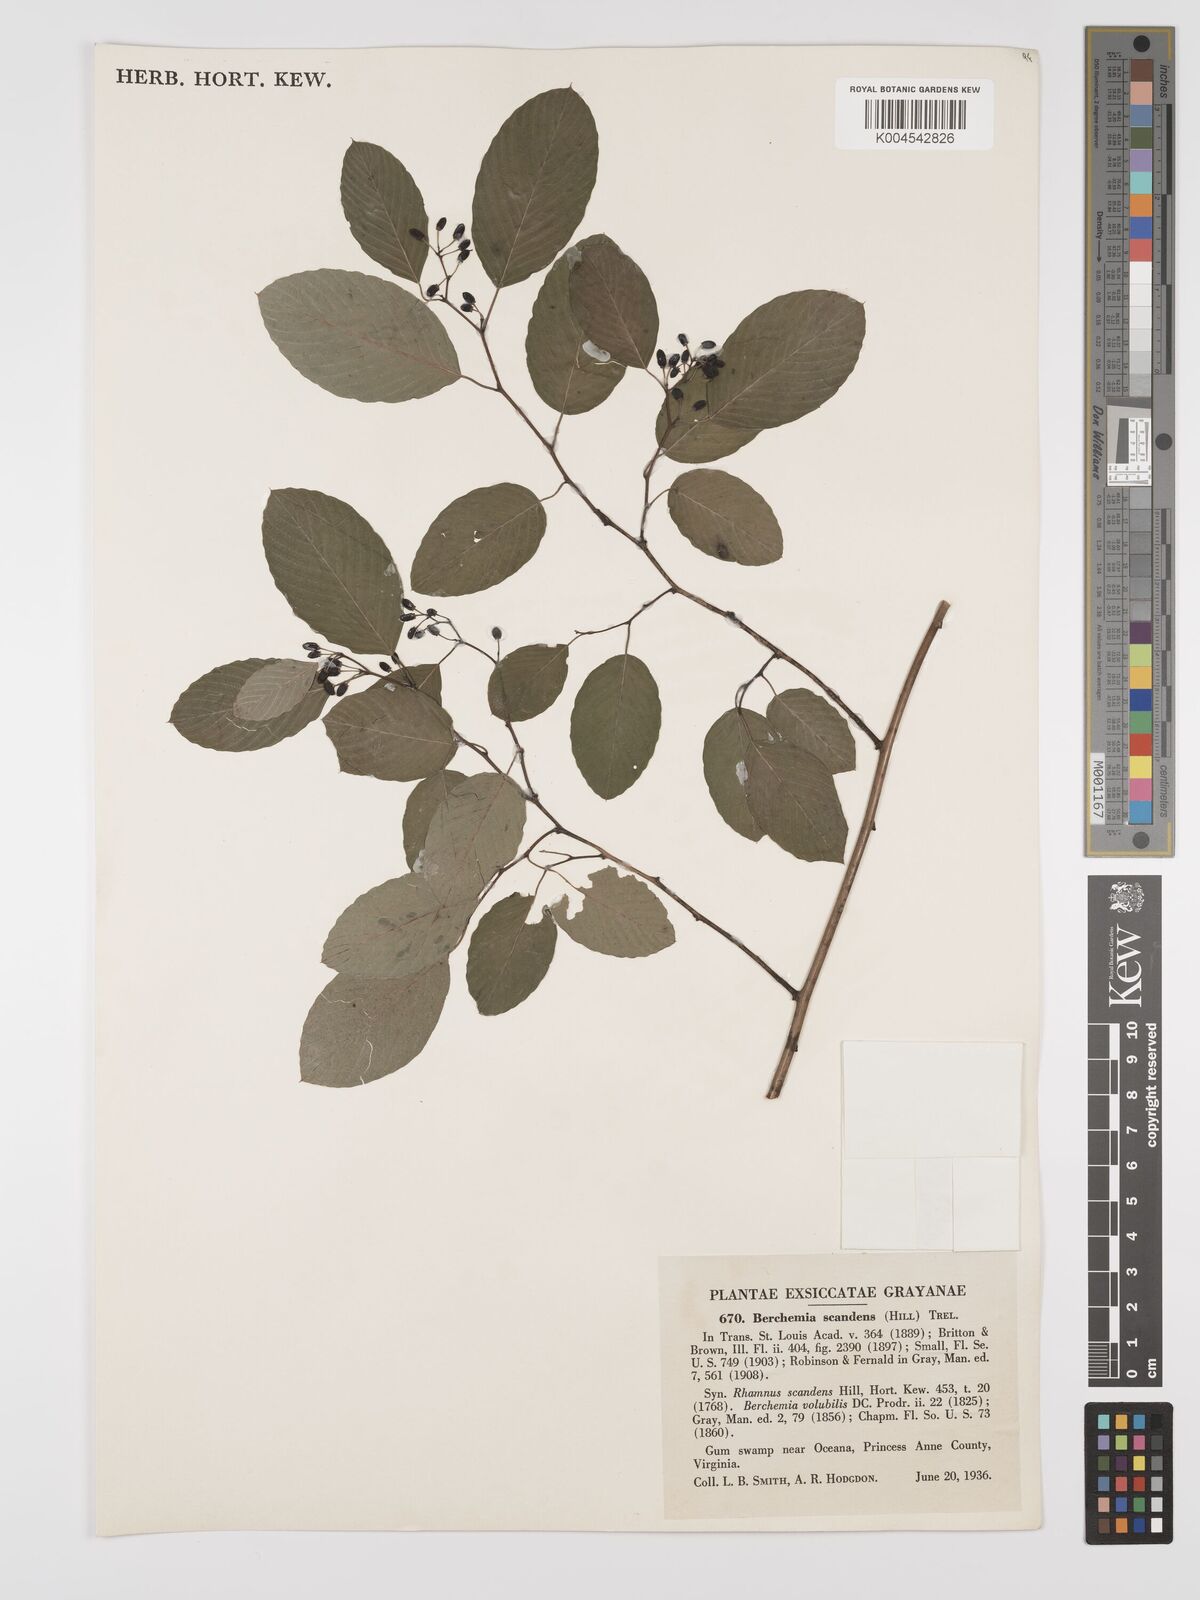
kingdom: Plantae
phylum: Tracheophyta
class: Magnoliopsida
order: Rosales
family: Rhamnaceae
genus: Berchemia
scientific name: Berchemia scandens
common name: Supplejack
